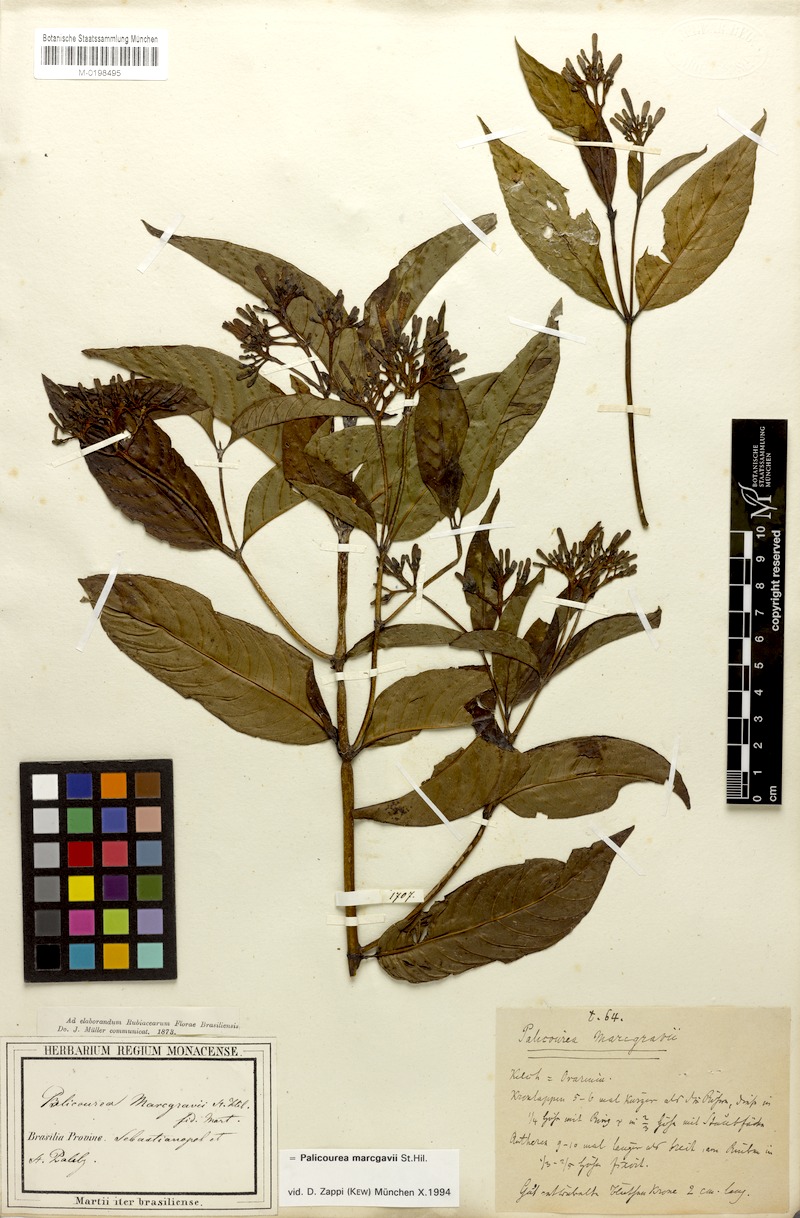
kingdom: Plantae
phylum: Tracheophyta
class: Magnoliopsida
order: Gentianales
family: Rubiaceae
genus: Palicourea
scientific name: Palicourea crocea
